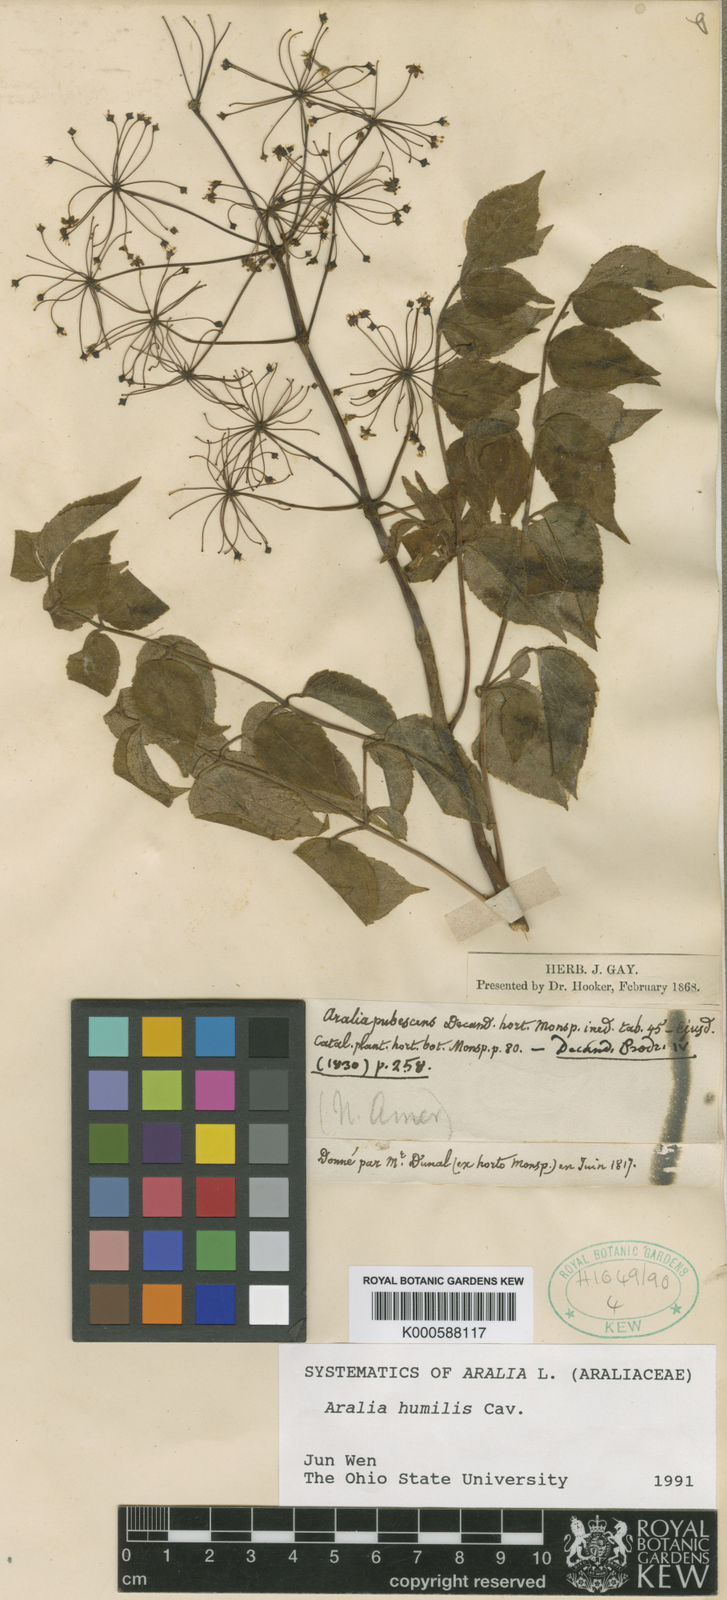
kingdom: Plantae
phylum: Tracheophyta
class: Magnoliopsida
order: Apiales
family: Araliaceae
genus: Aralia
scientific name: Aralia humilis
